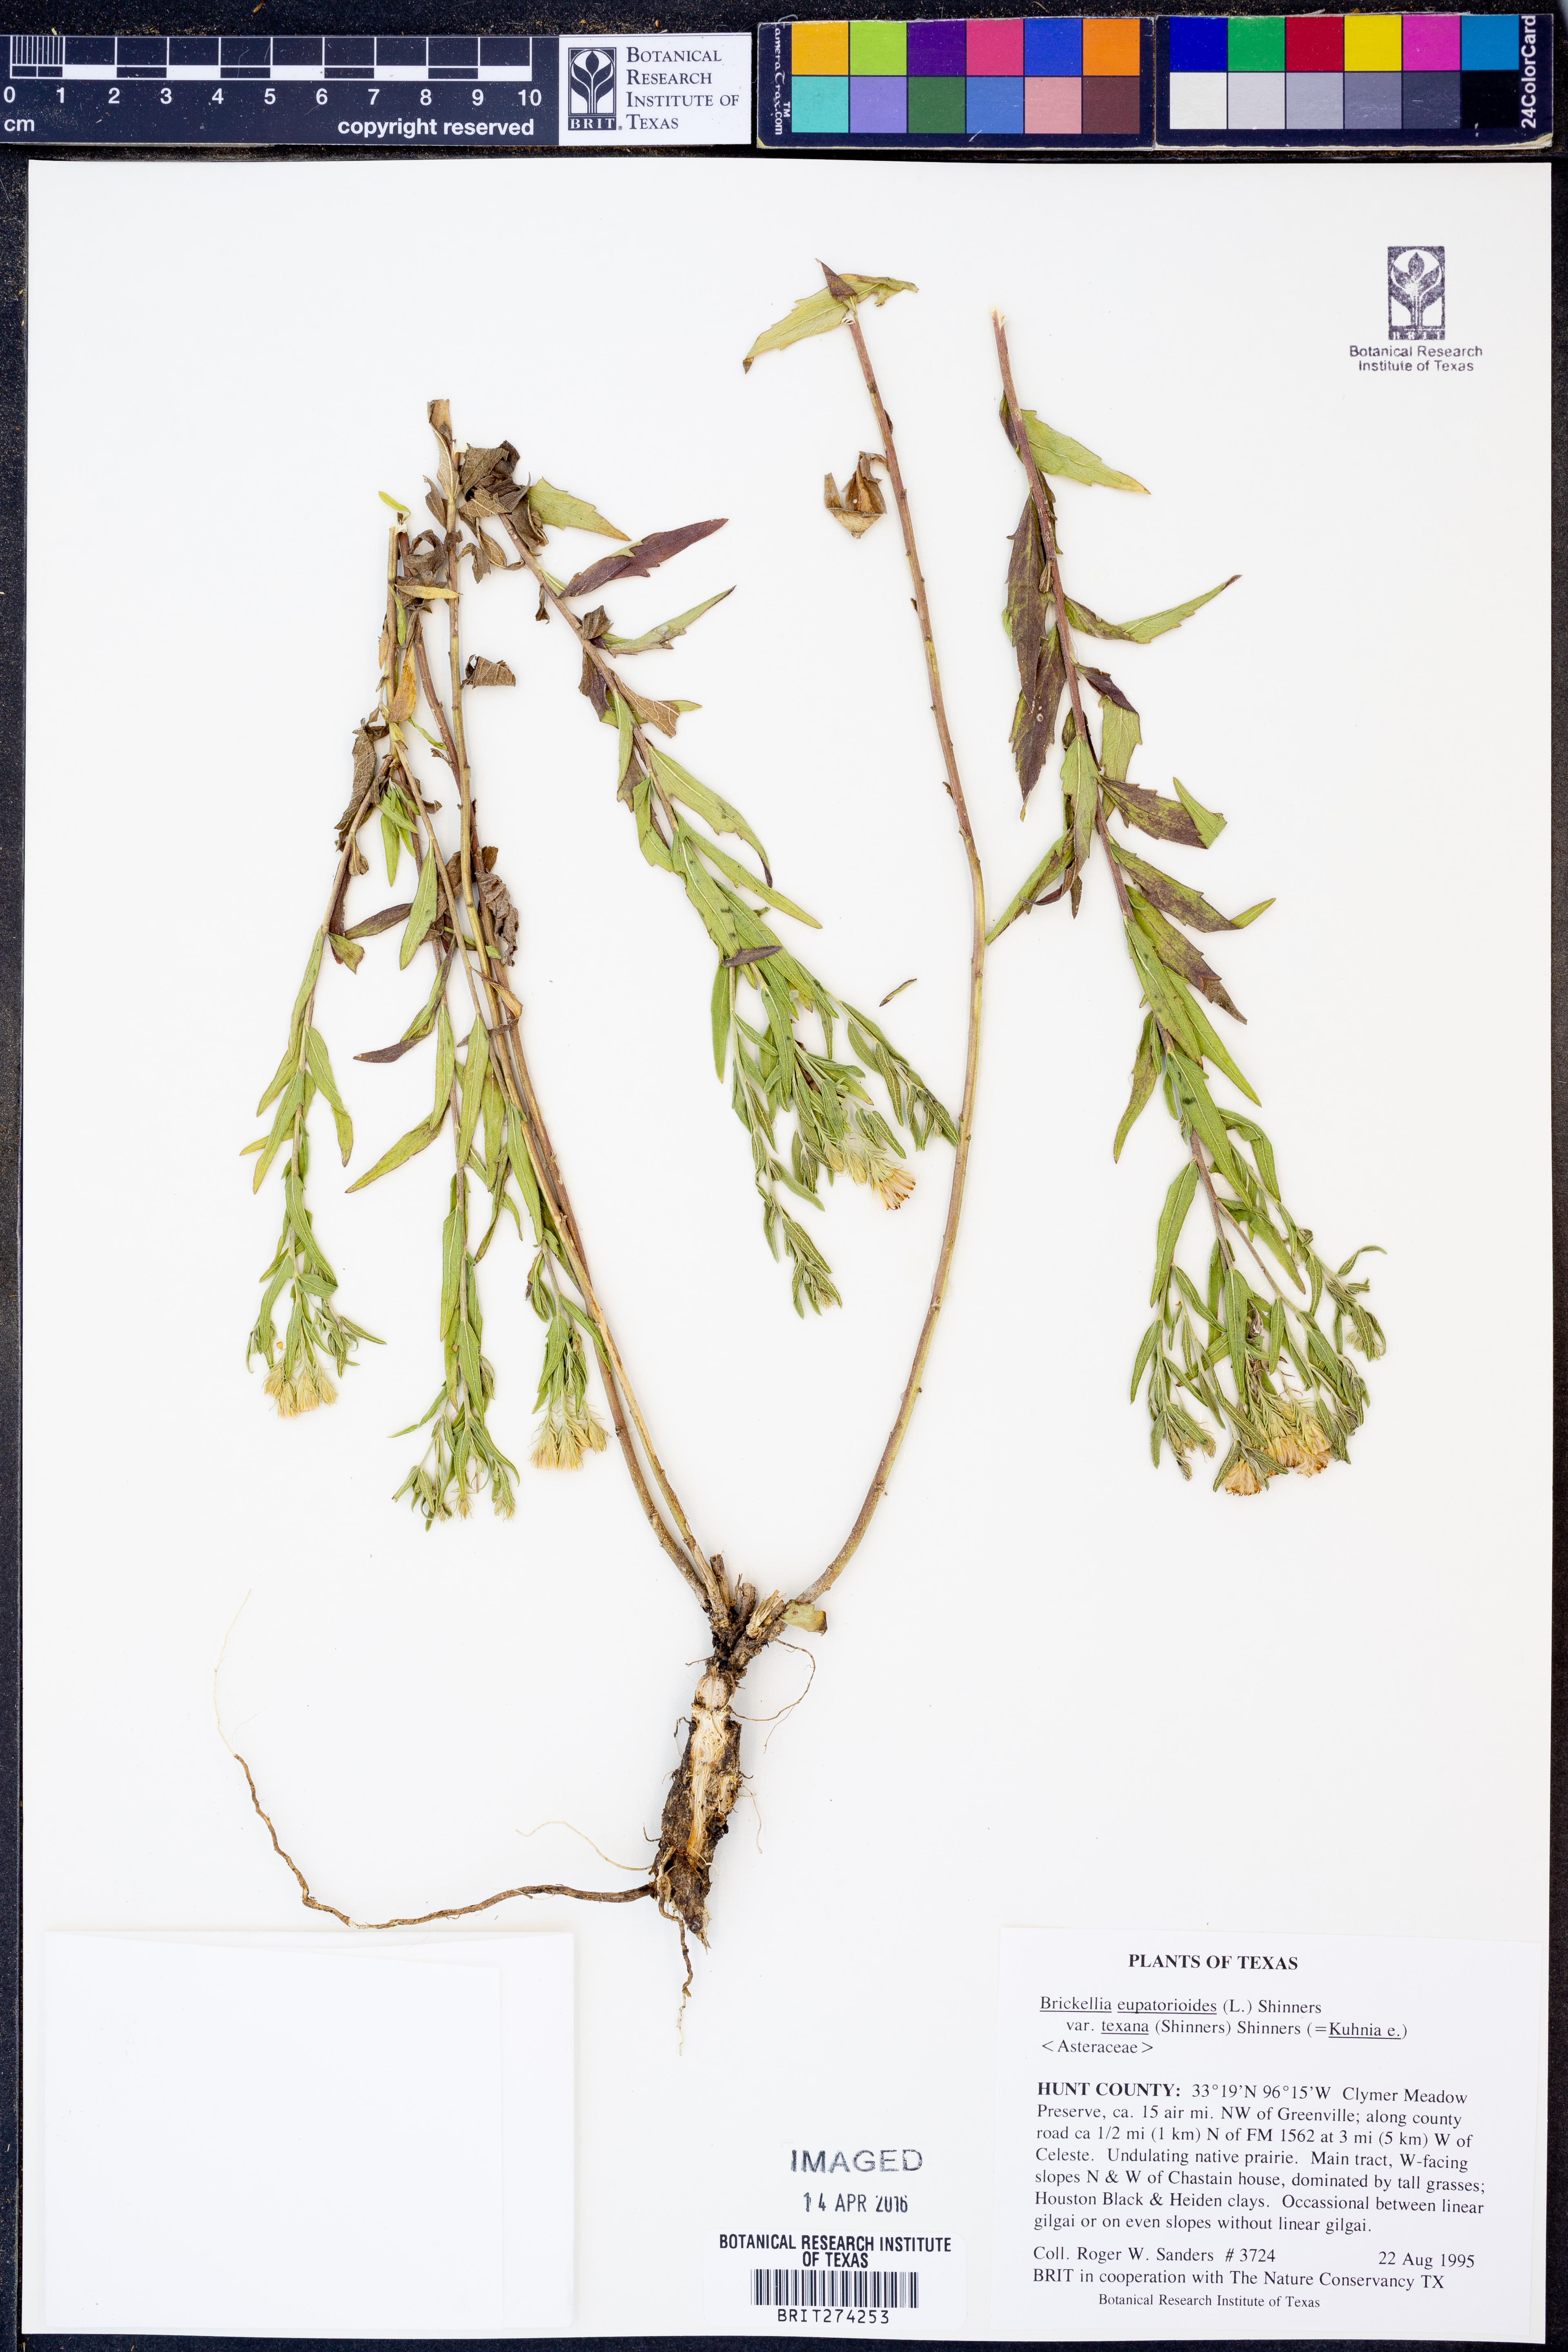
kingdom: Plantae
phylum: Tracheophyta
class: Magnoliopsida
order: Asterales
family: Asteraceae
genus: Brickellia
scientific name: Brickellia macranthra
